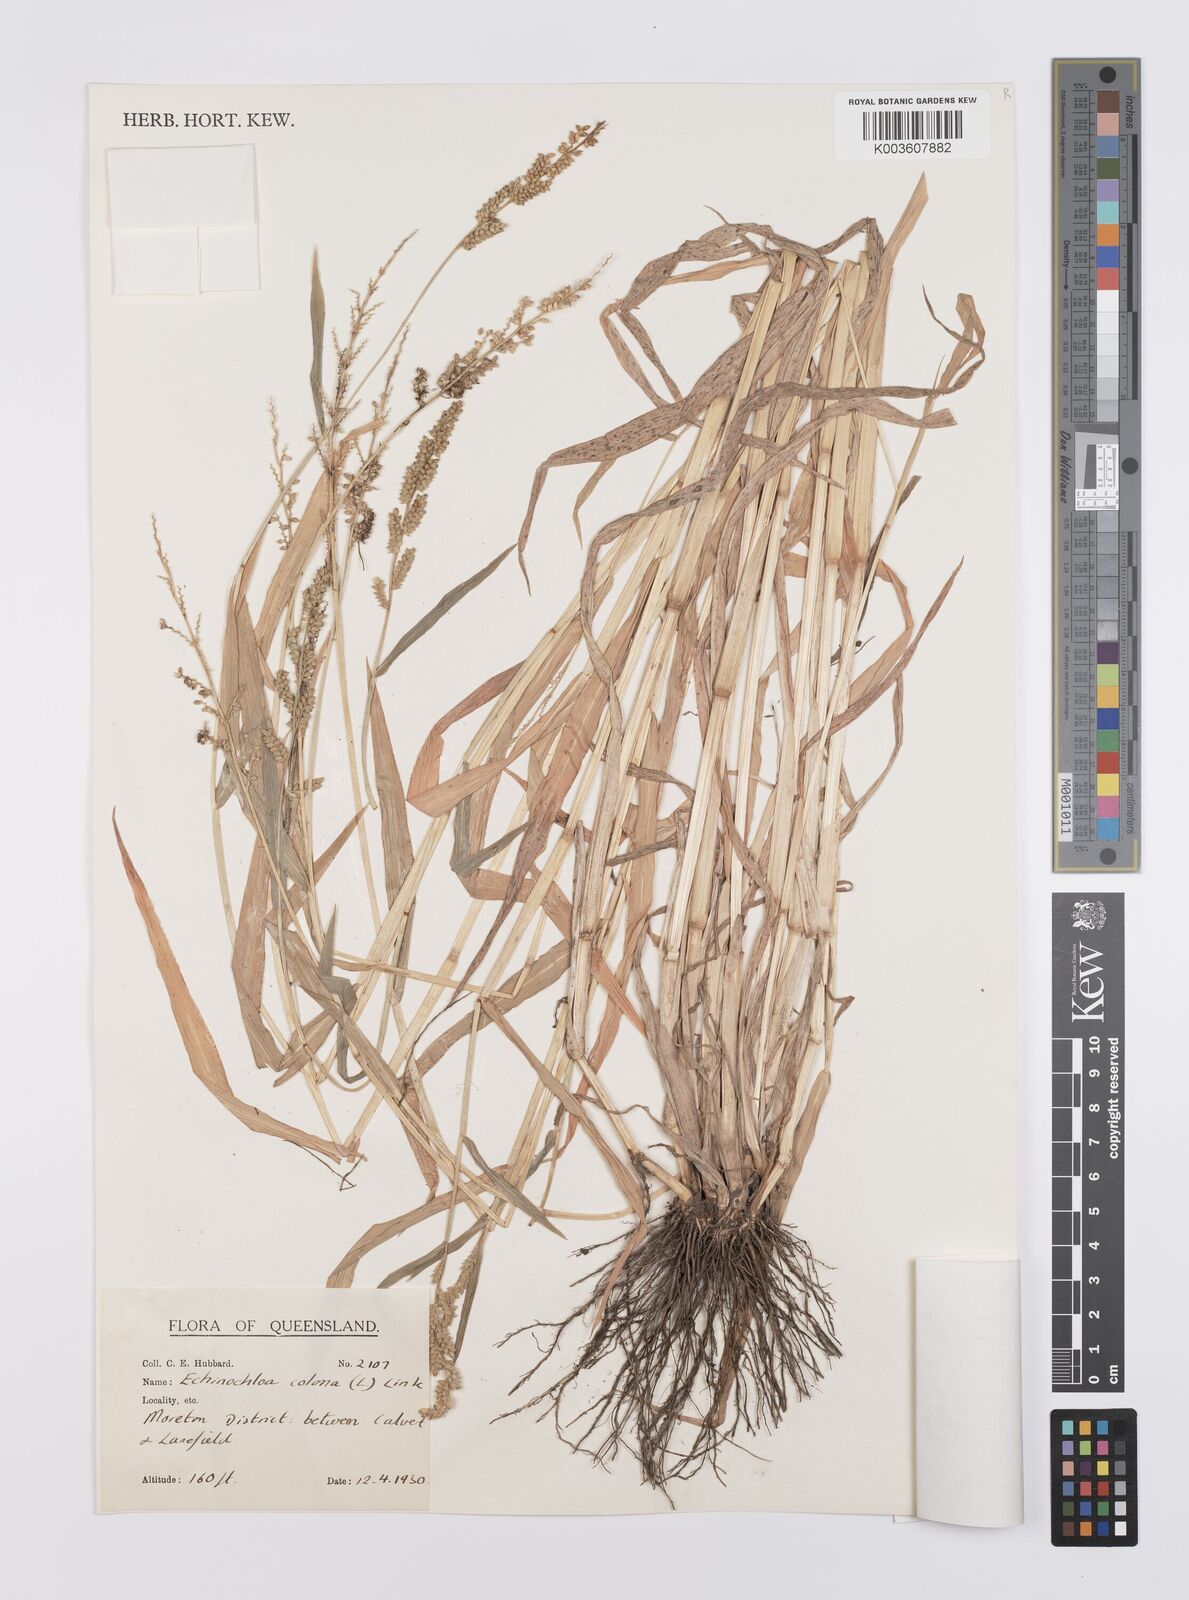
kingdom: Plantae
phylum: Tracheophyta
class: Liliopsida
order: Poales
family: Poaceae
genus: Echinochloa
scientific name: Echinochloa colonum
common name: Jungle rice
